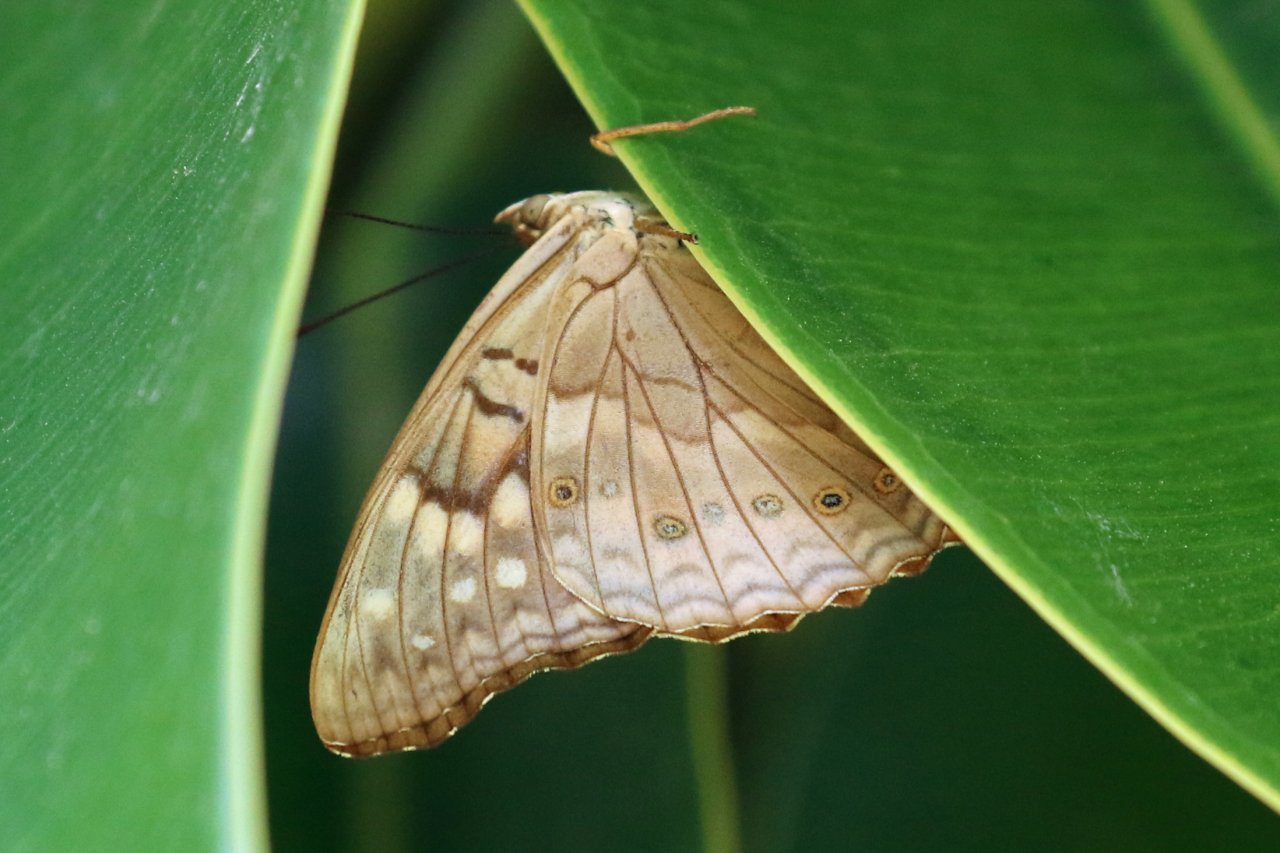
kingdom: Animalia
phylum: Arthropoda
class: Insecta
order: Lepidoptera
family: Nymphalidae
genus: Asterocampa
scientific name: Asterocampa clyton
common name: Tawny Emperor
